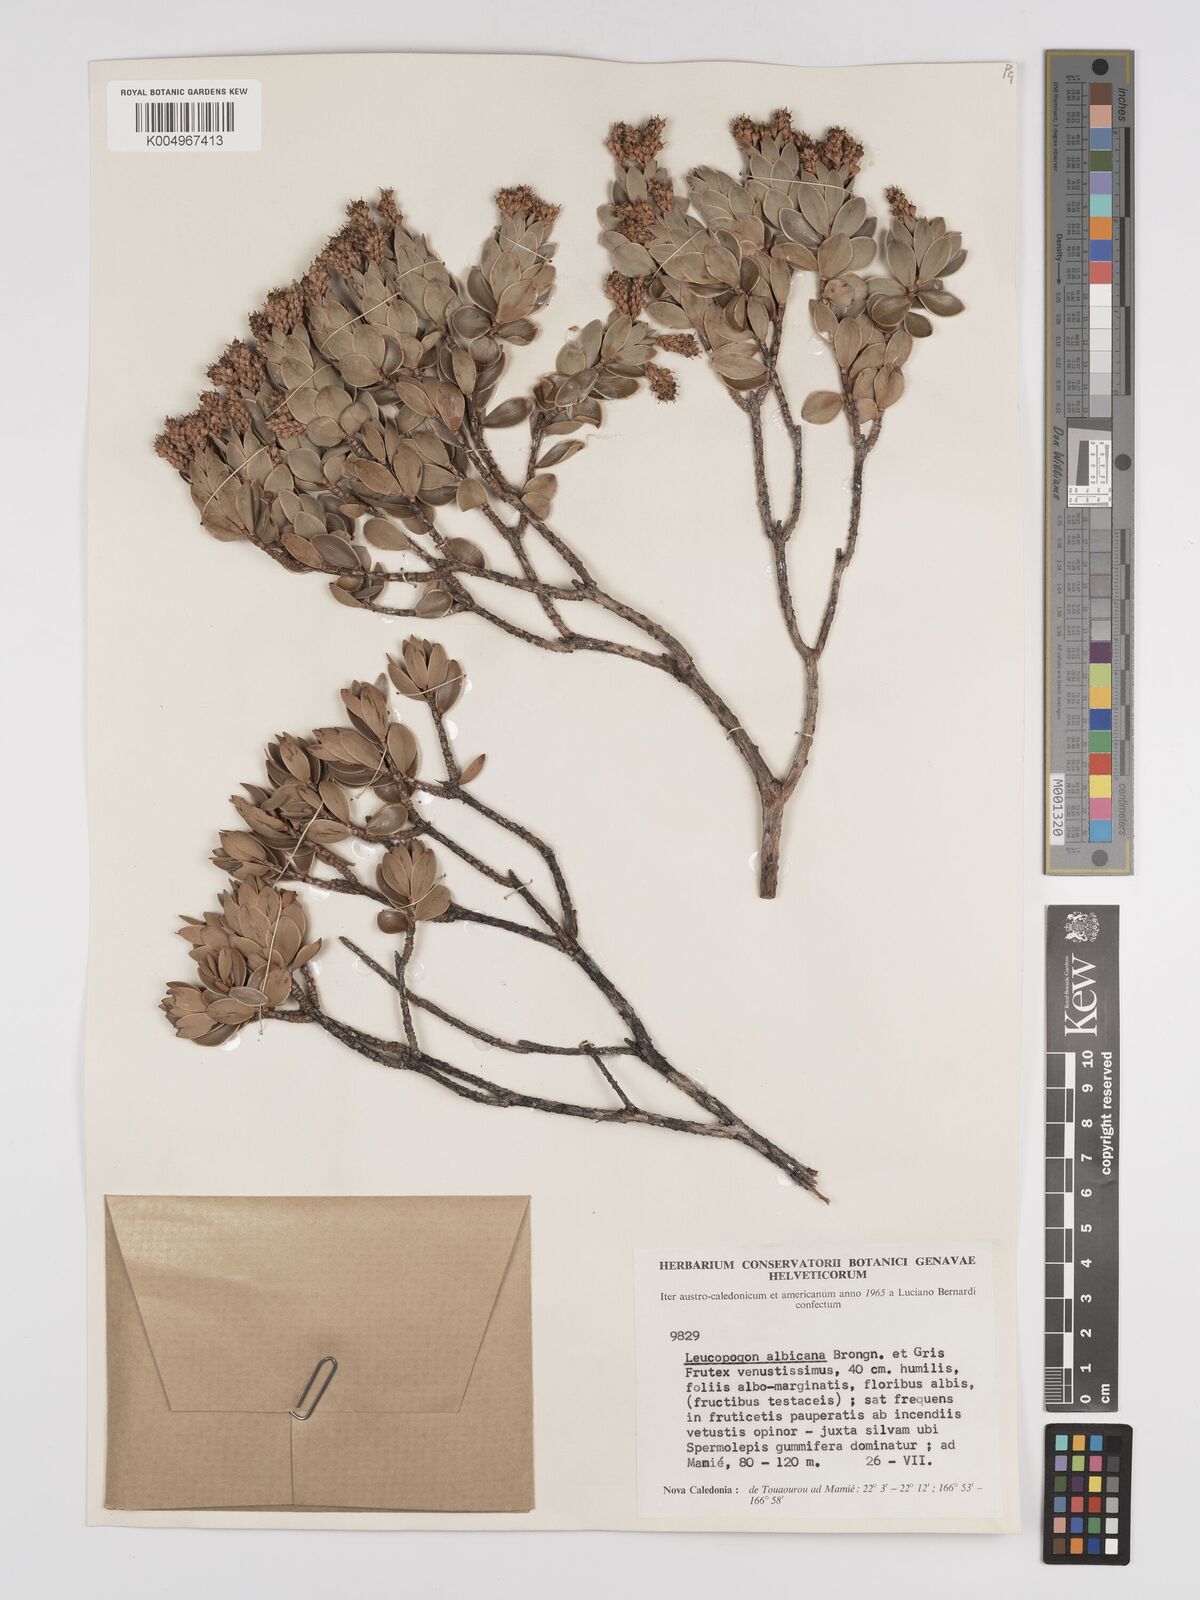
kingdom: Plantae
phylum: Tracheophyta
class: Magnoliopsida
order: Ericales
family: Ericaceae
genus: Cyathopsis
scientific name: Cyathopsis albicans
